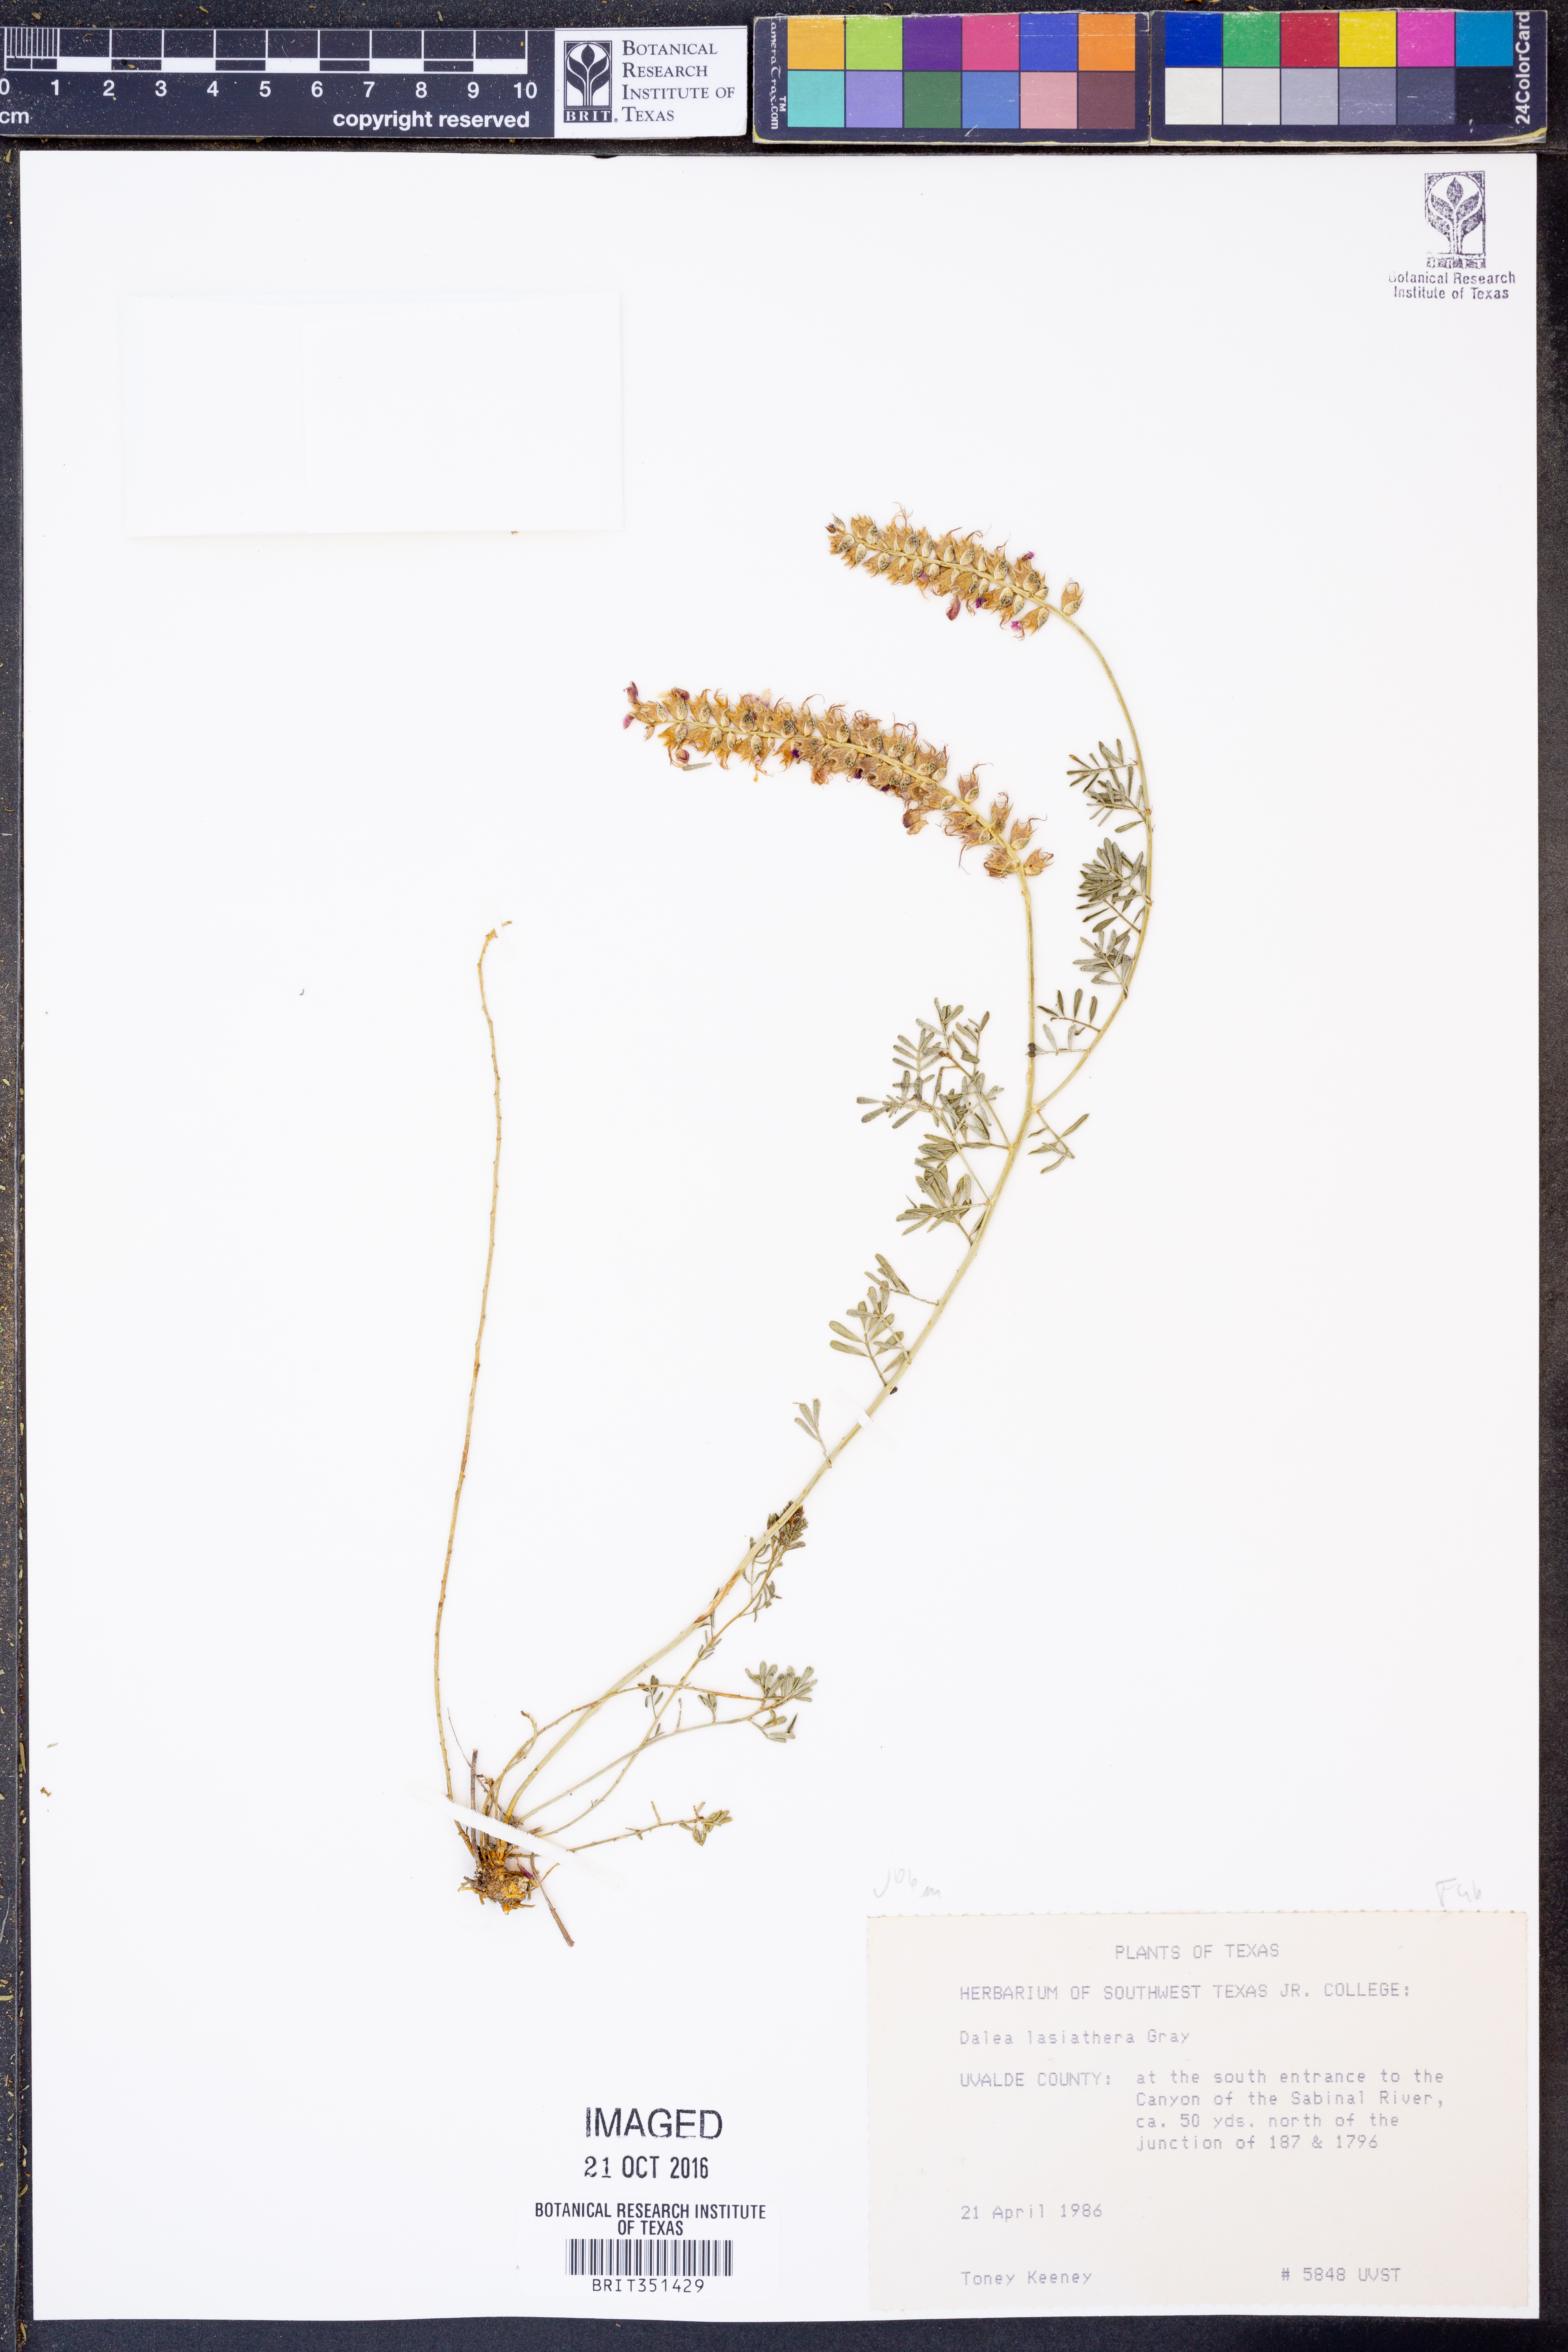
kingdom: Plantae
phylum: Tracheophyta
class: Magnoliopsida
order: Fabales
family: Fabaceae
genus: Dalea
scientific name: Dalea lasiathera
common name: Purple prairie-clover
